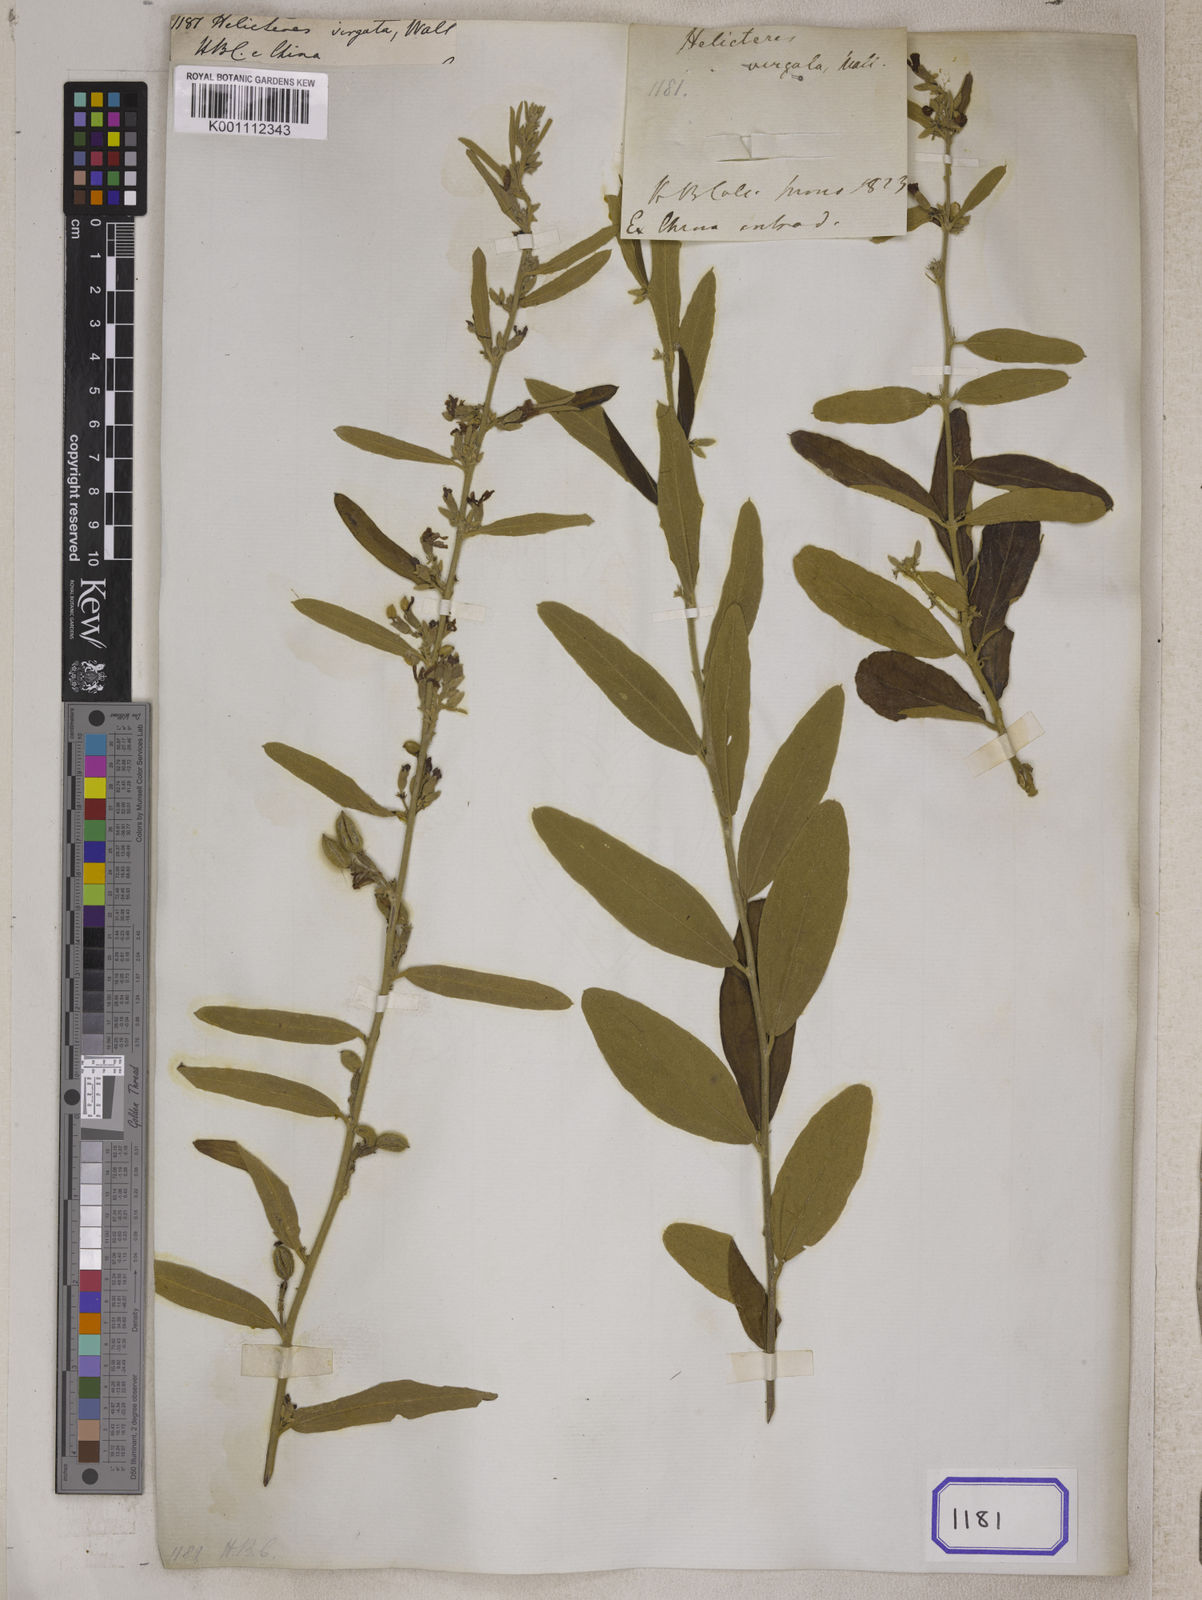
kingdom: Plantae
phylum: Tracheophyta
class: Magnoliopsida
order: Malvales
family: Malvaceae
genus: Helicteres
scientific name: Helicteres
